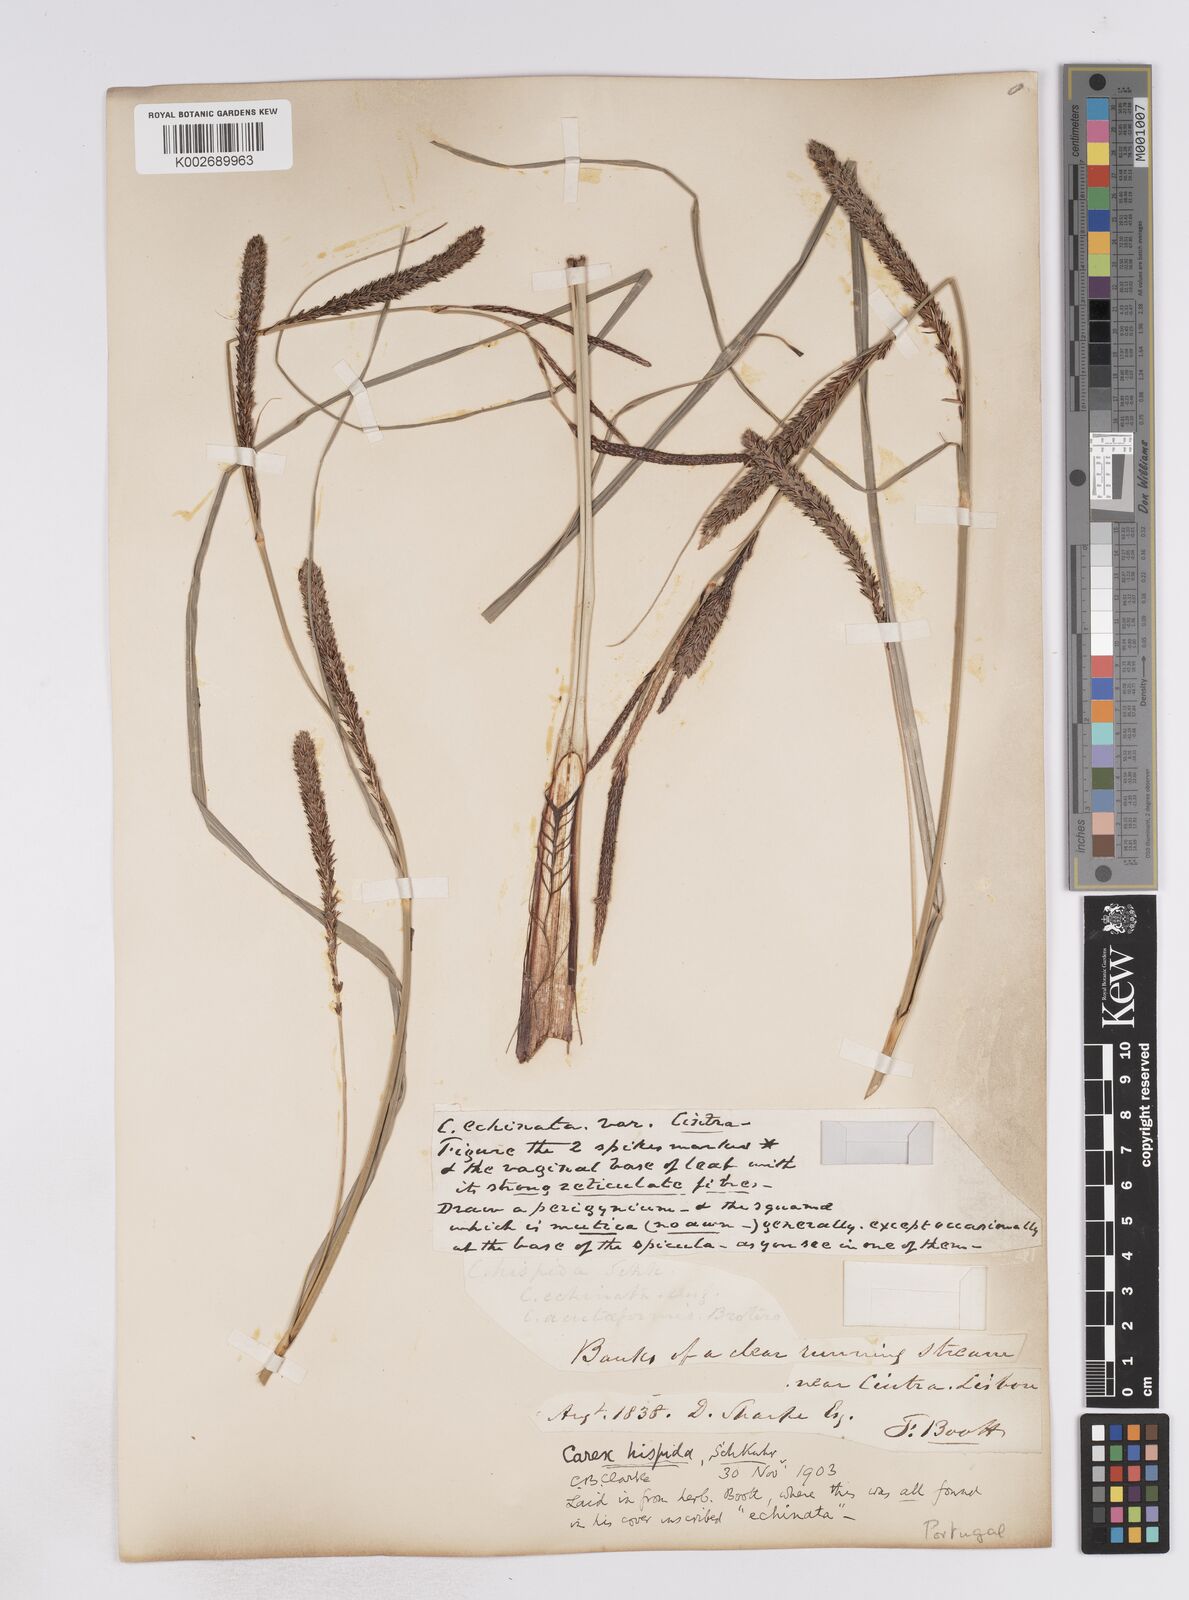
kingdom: Plantae
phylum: Tracheophyta
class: Liliopsida
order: Poales
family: Cyperaceae
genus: Carex
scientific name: Carex hispida
